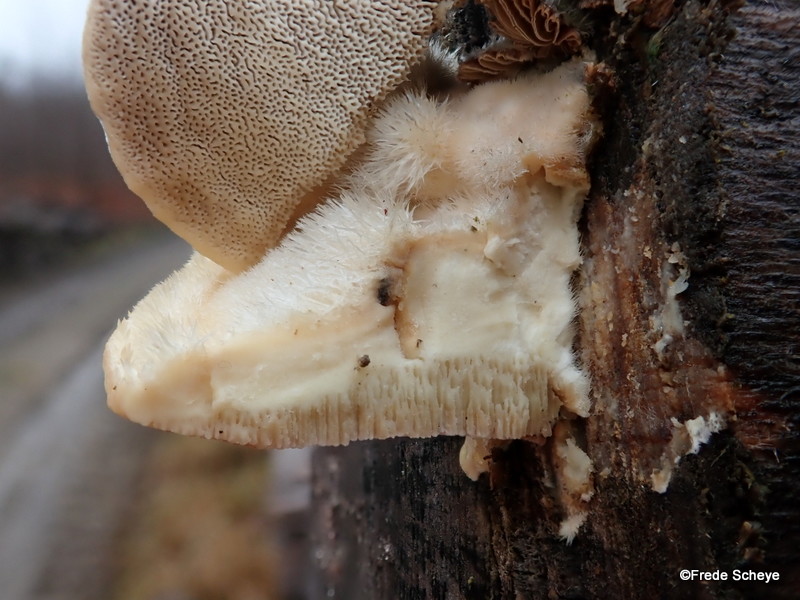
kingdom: Fungi
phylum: Basidiomycota
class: Agaricomycetes
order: Polyporales
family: Polyporaceae
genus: Trametes
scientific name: Trametes hirsuta
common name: håret læderporesvamp
